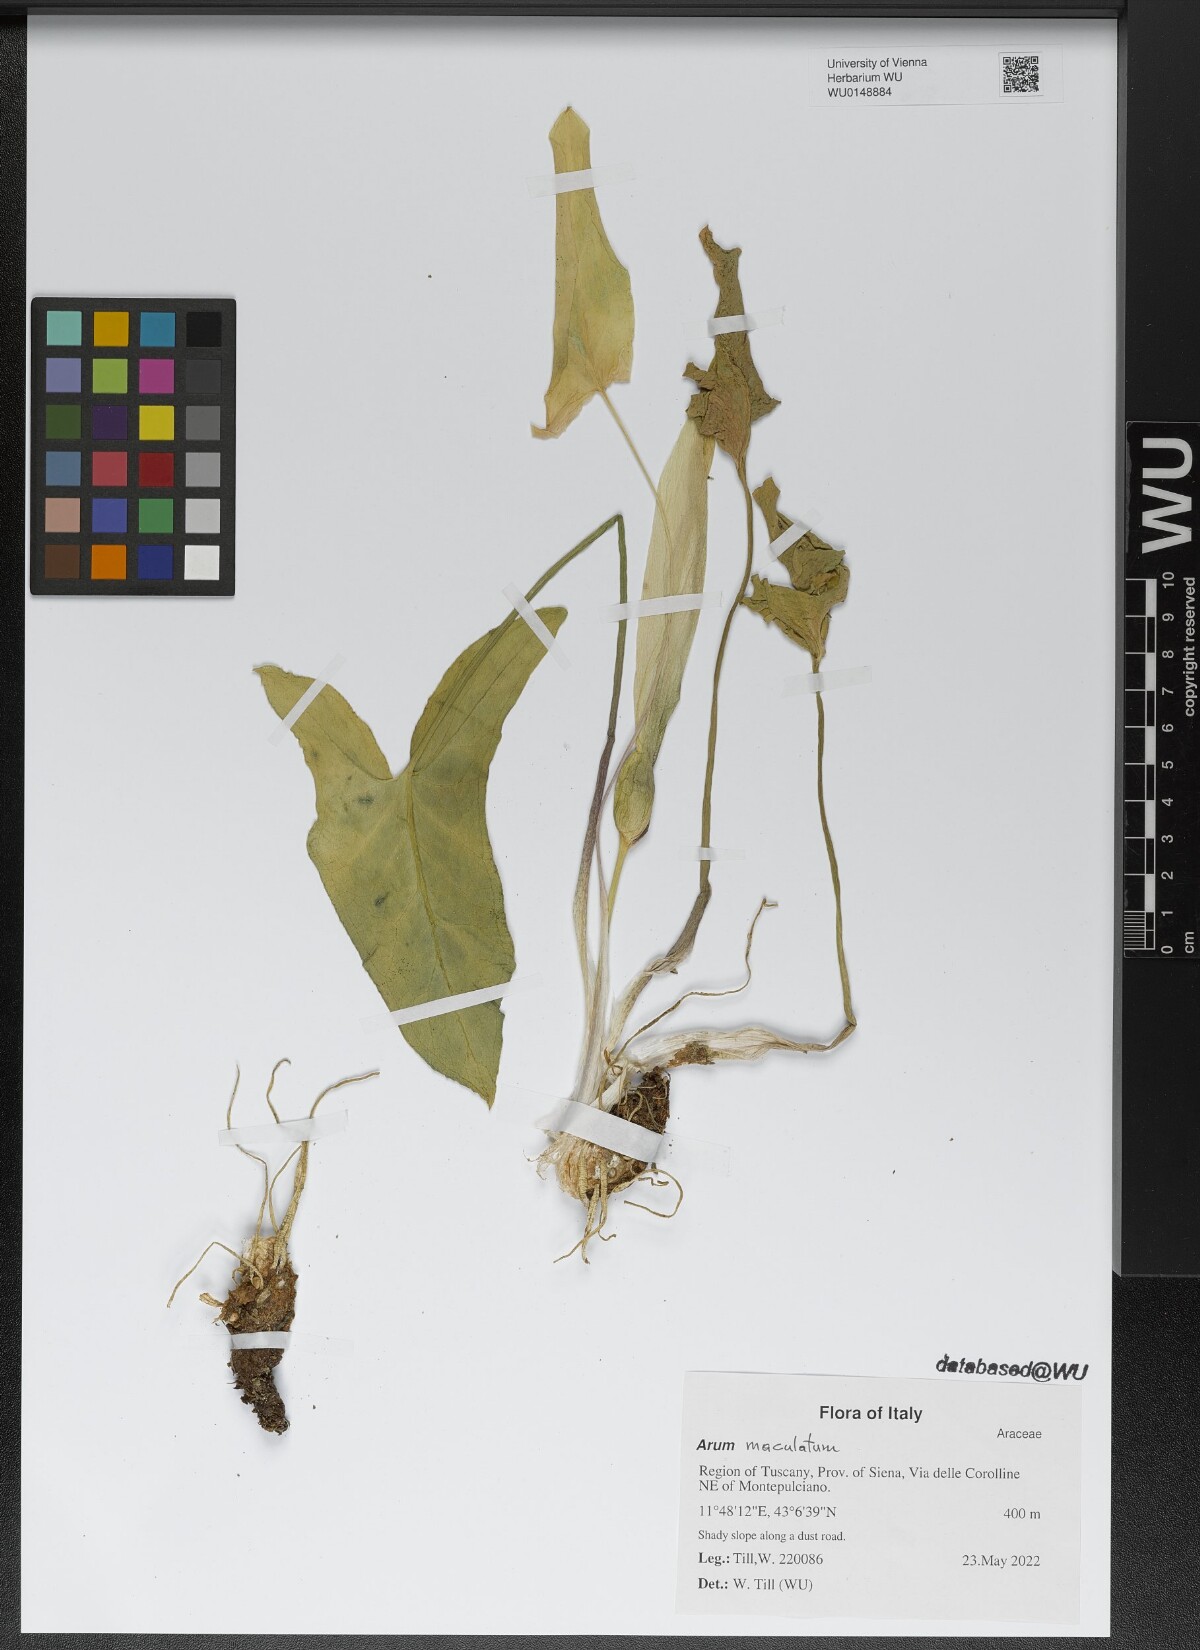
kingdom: Plantae
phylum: Tracheophyta
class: Liliopsida
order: Alismatales
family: Araceae
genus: Arum
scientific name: Arum
